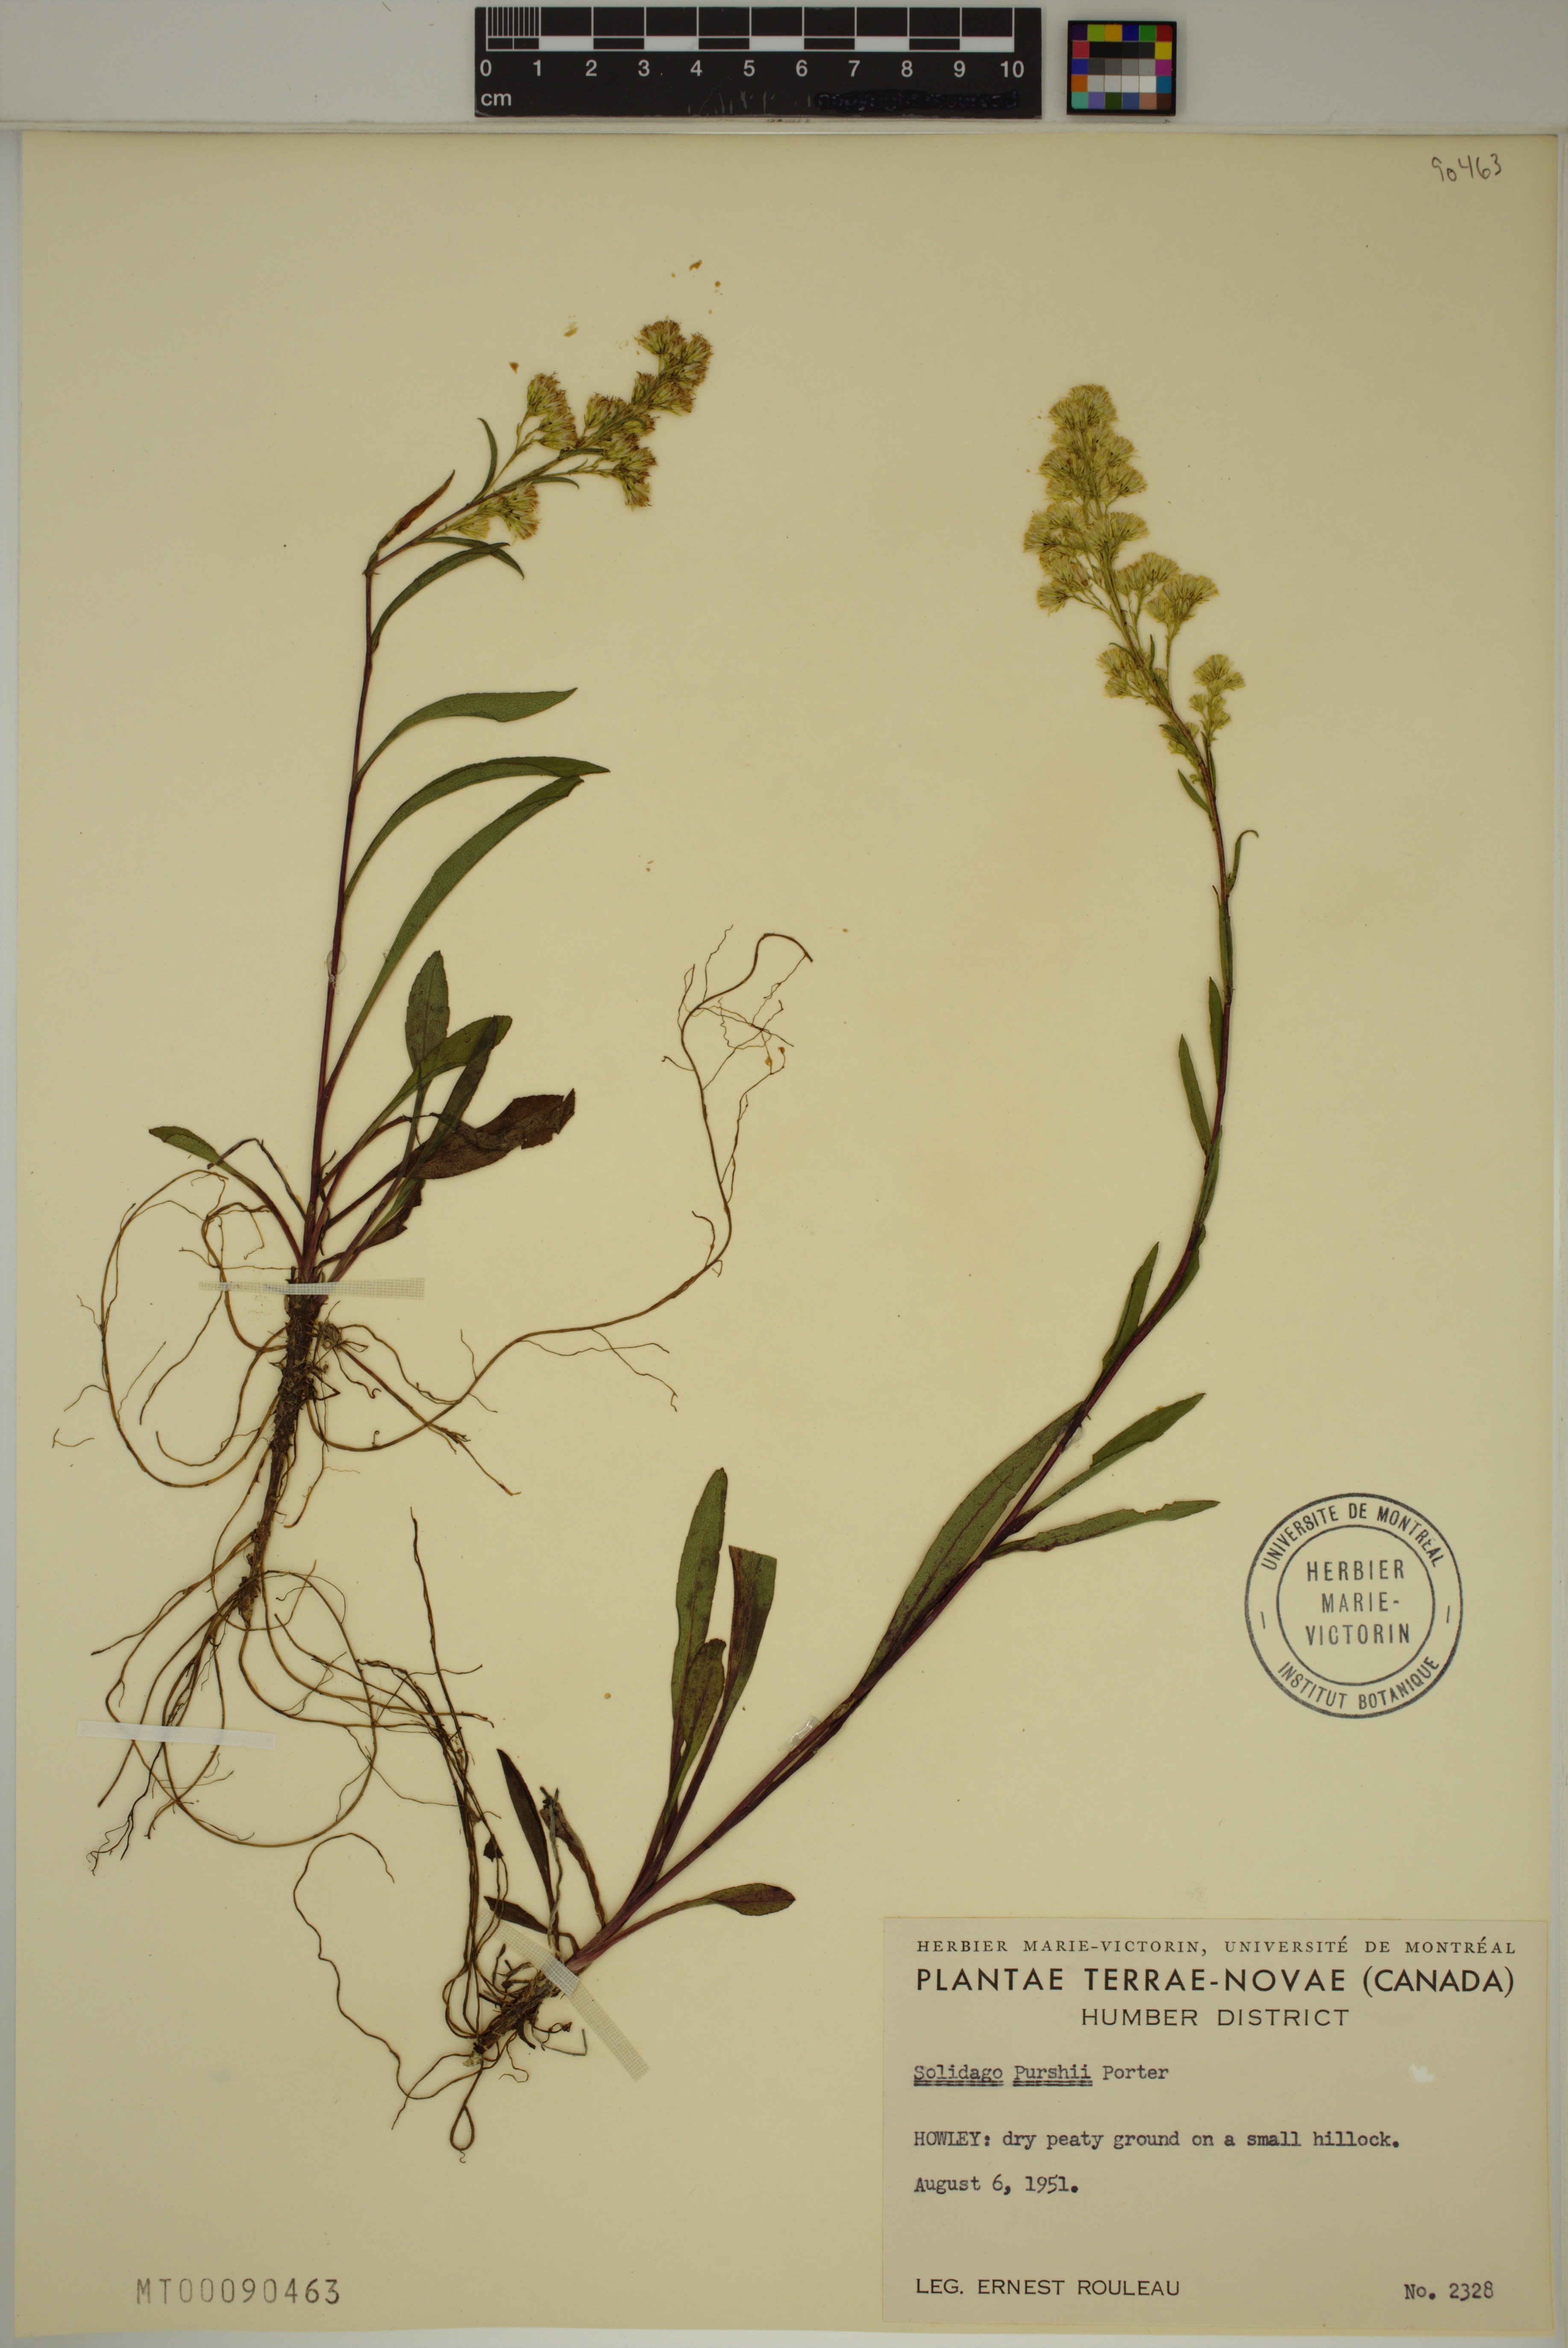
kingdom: Plantae
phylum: Tracheophyta
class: Magnoliopsida
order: Asterales
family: Asteraceae
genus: Solidago
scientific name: Solidago uliginosa
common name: Bog goldenrod
